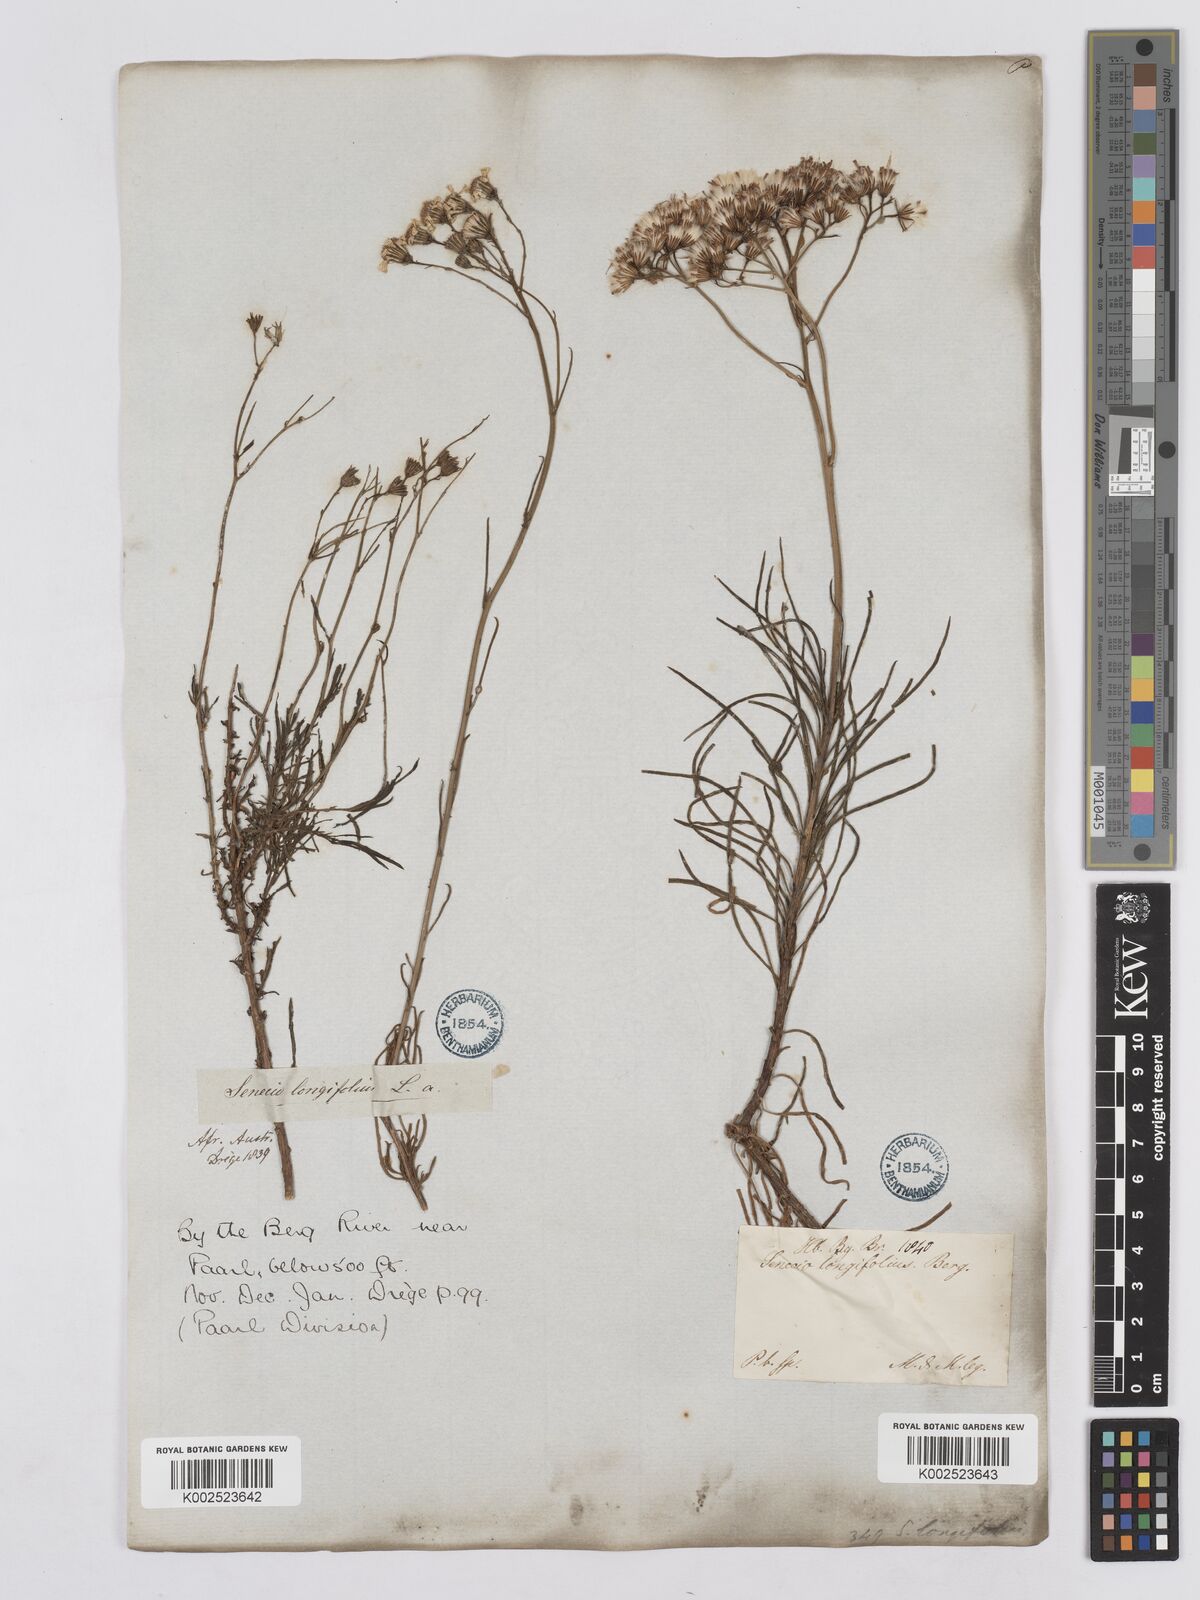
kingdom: Plantae
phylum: Tracheophyta
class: Magnoliopsida
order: Asterales
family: Asteraceae
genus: Senecio
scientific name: Senecio linifolius
